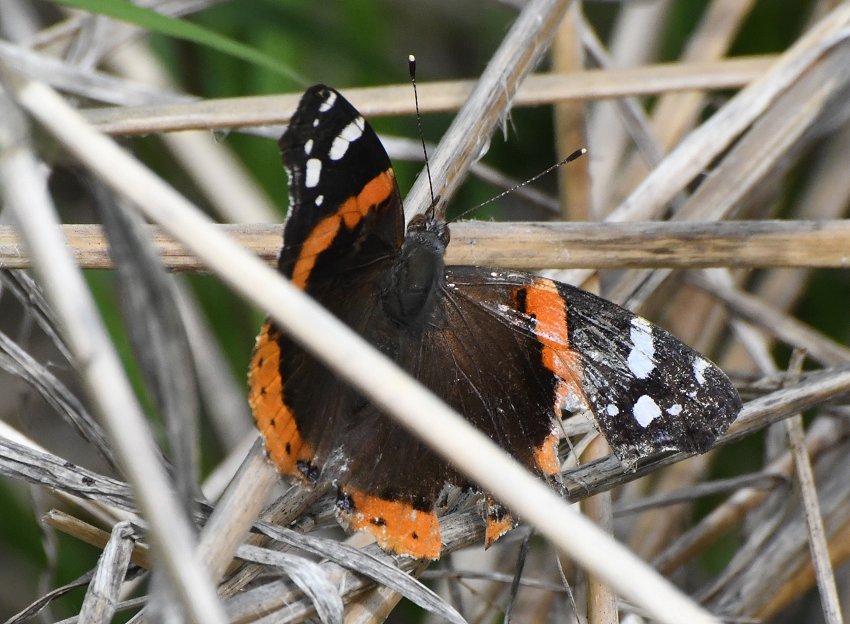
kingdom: Animalia
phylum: Arthropoda
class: Insecta
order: Lepidoptera
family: Nymphalidae
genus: Vanessa
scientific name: Vanessa atalanta
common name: Red Admiral
